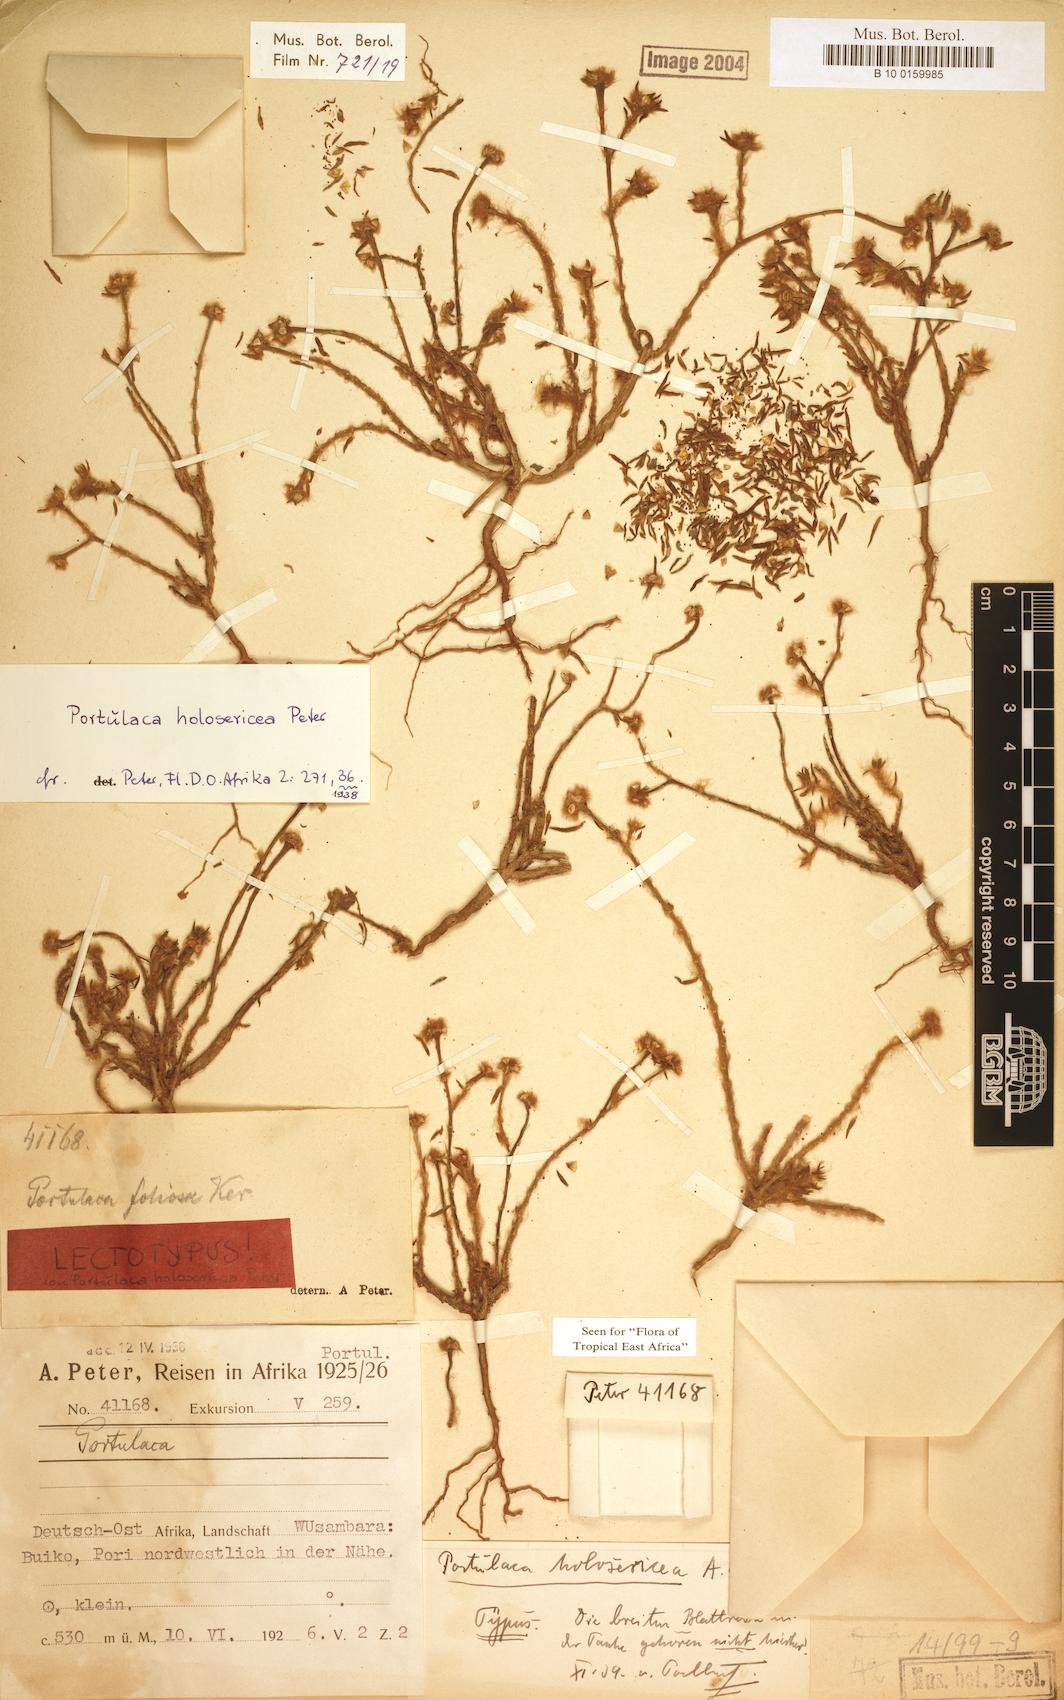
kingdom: Plantae
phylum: Tracheophyta
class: Magnoliopsida
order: Caryophyllales
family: Portulacaceae
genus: Portulaca
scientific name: Portulaca kermesina
